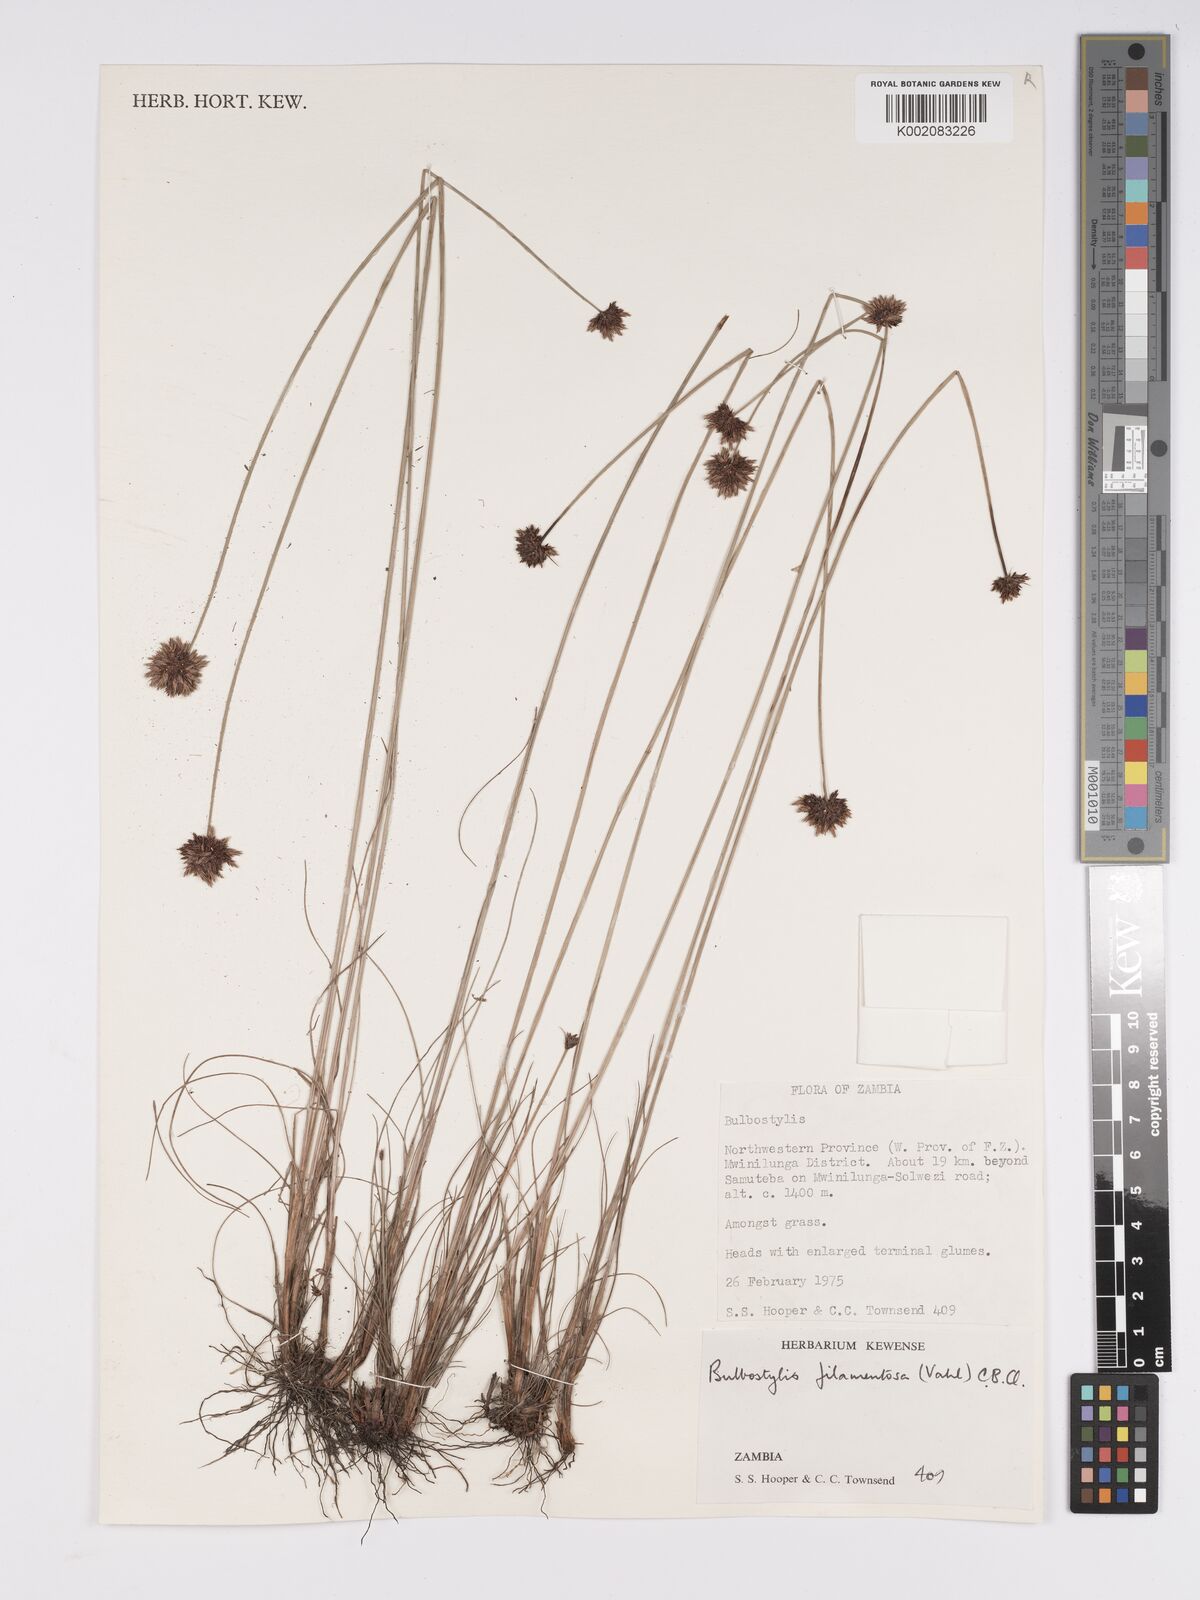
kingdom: Plantae
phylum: Tracheophyta
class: Liliopsida
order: Poales
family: Cyperaceae
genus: Bulbostylis
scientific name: Bulbostylis filamentosa
